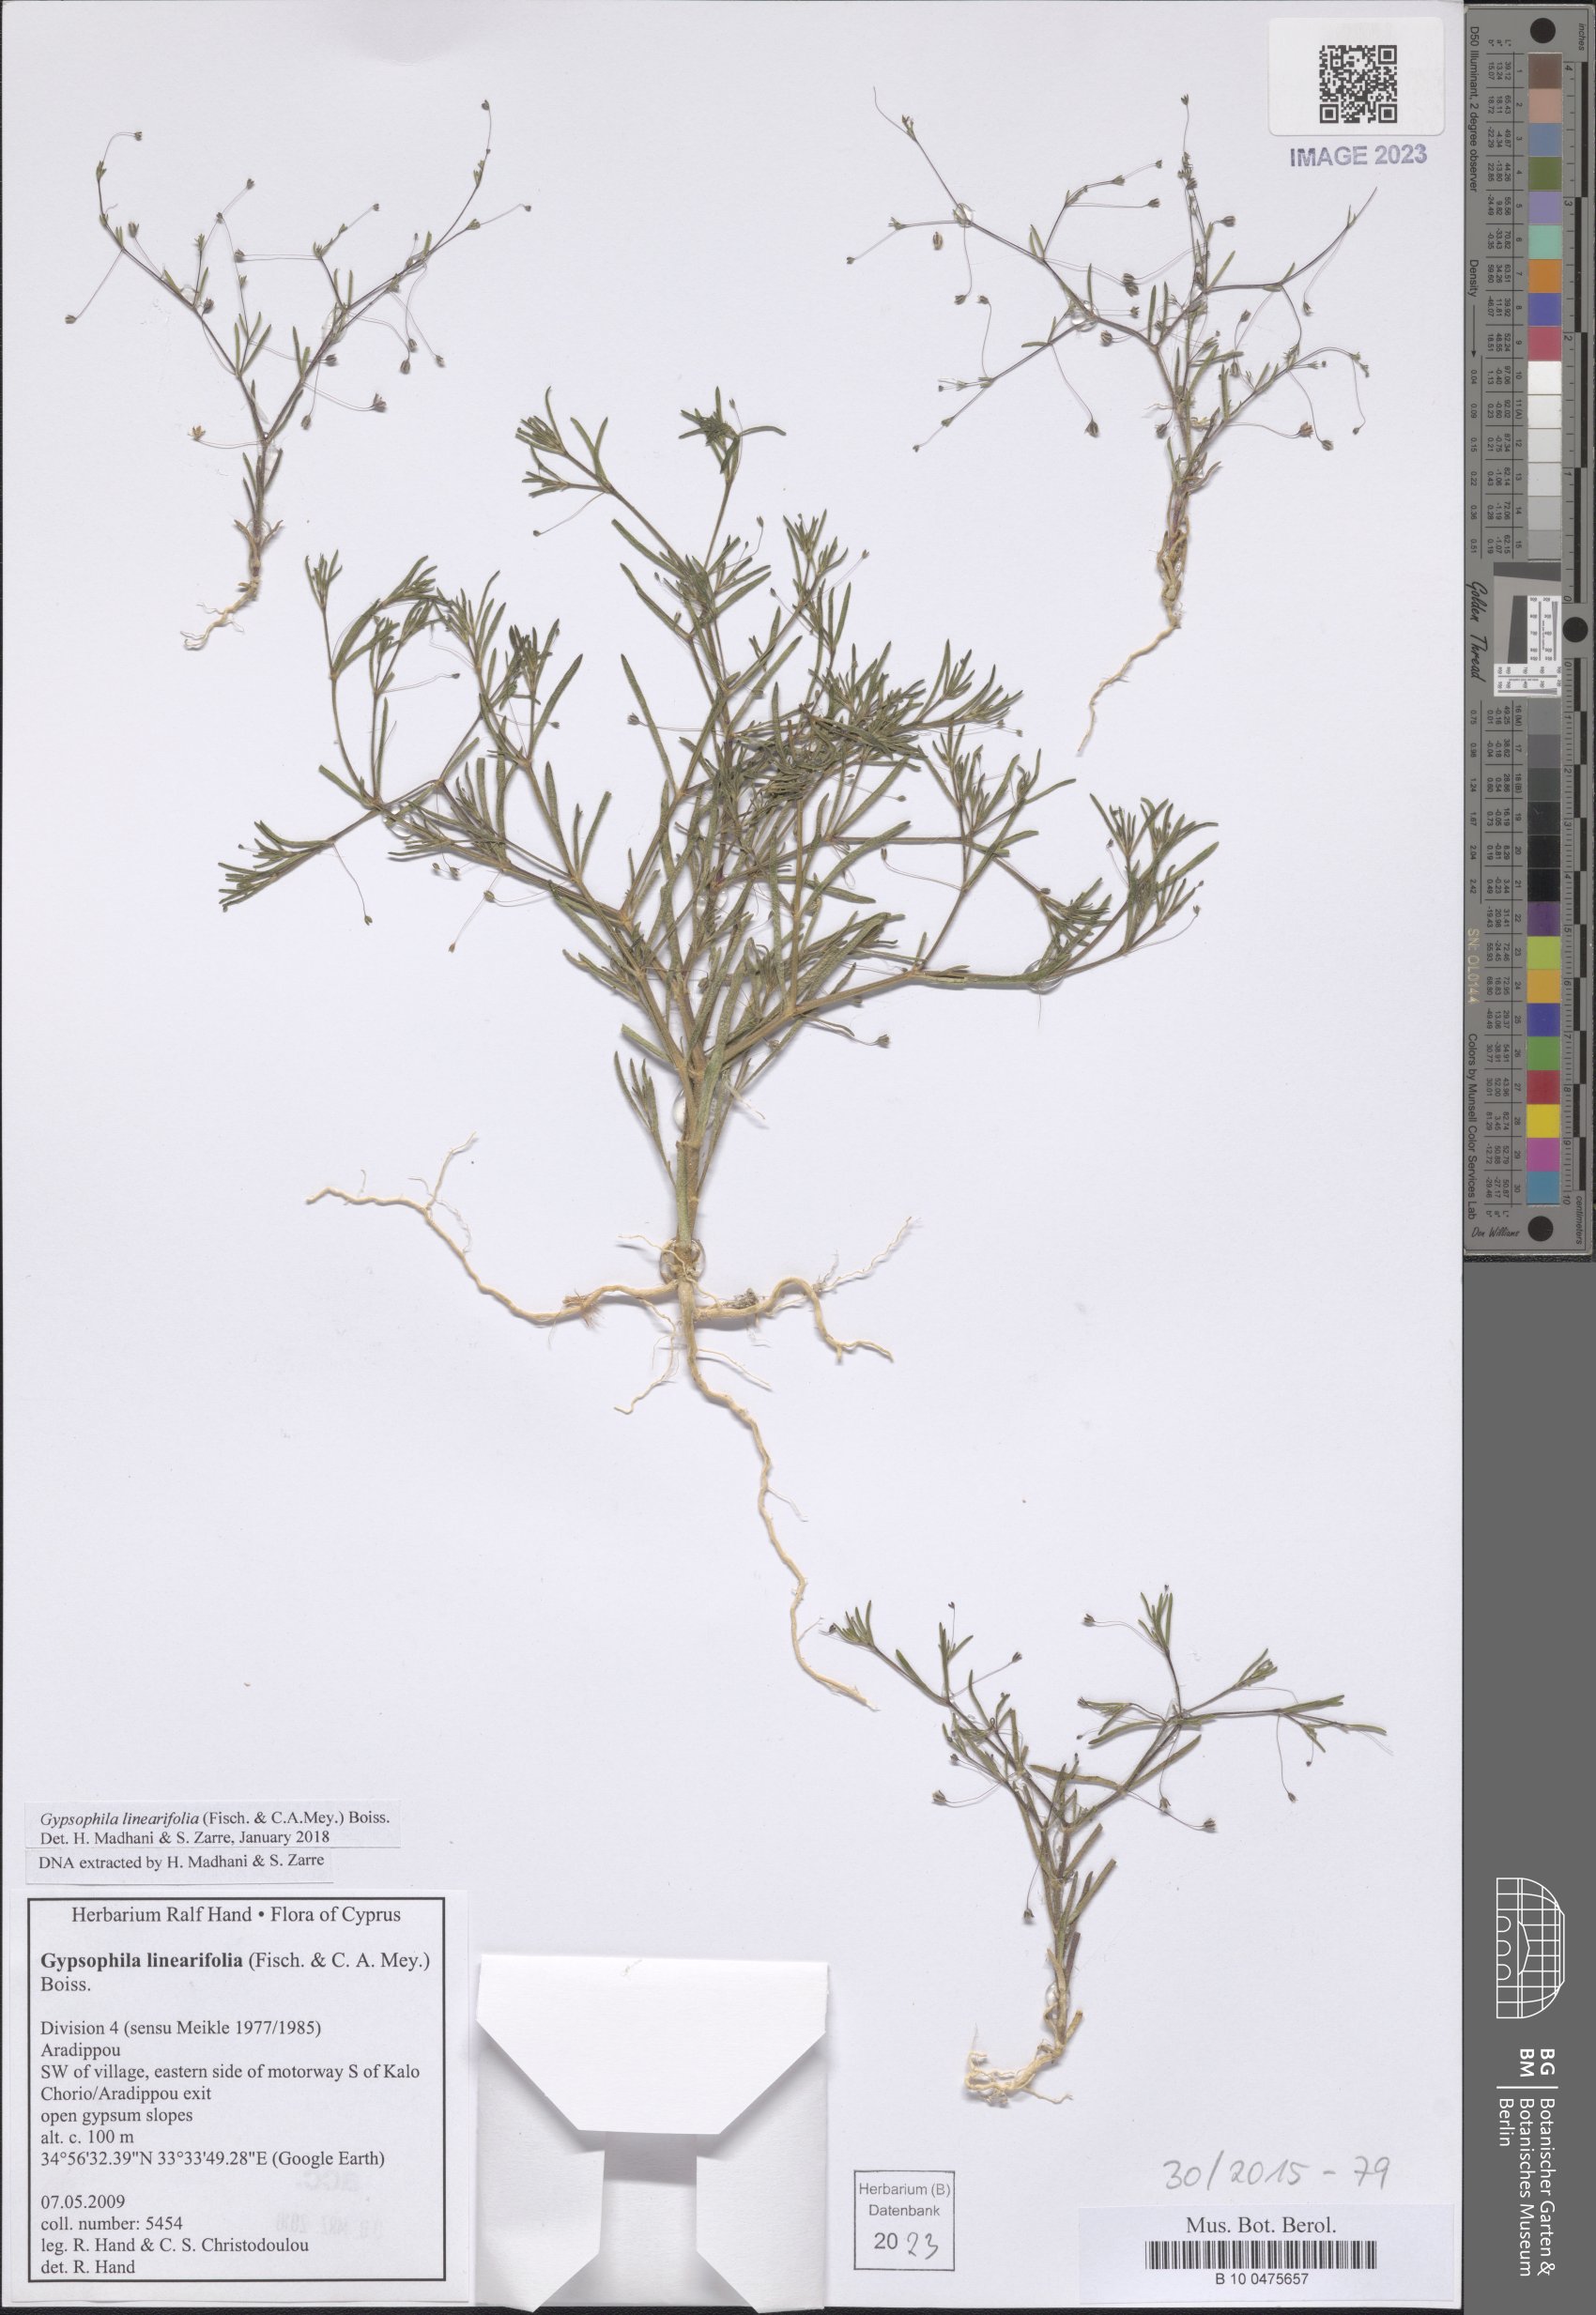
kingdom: Plantae
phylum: Tracheophyta
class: Magnoliopsida
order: Caryophyllales
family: Caryophyllaceae
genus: Gypsophila
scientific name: Gypsophila linearifolia
